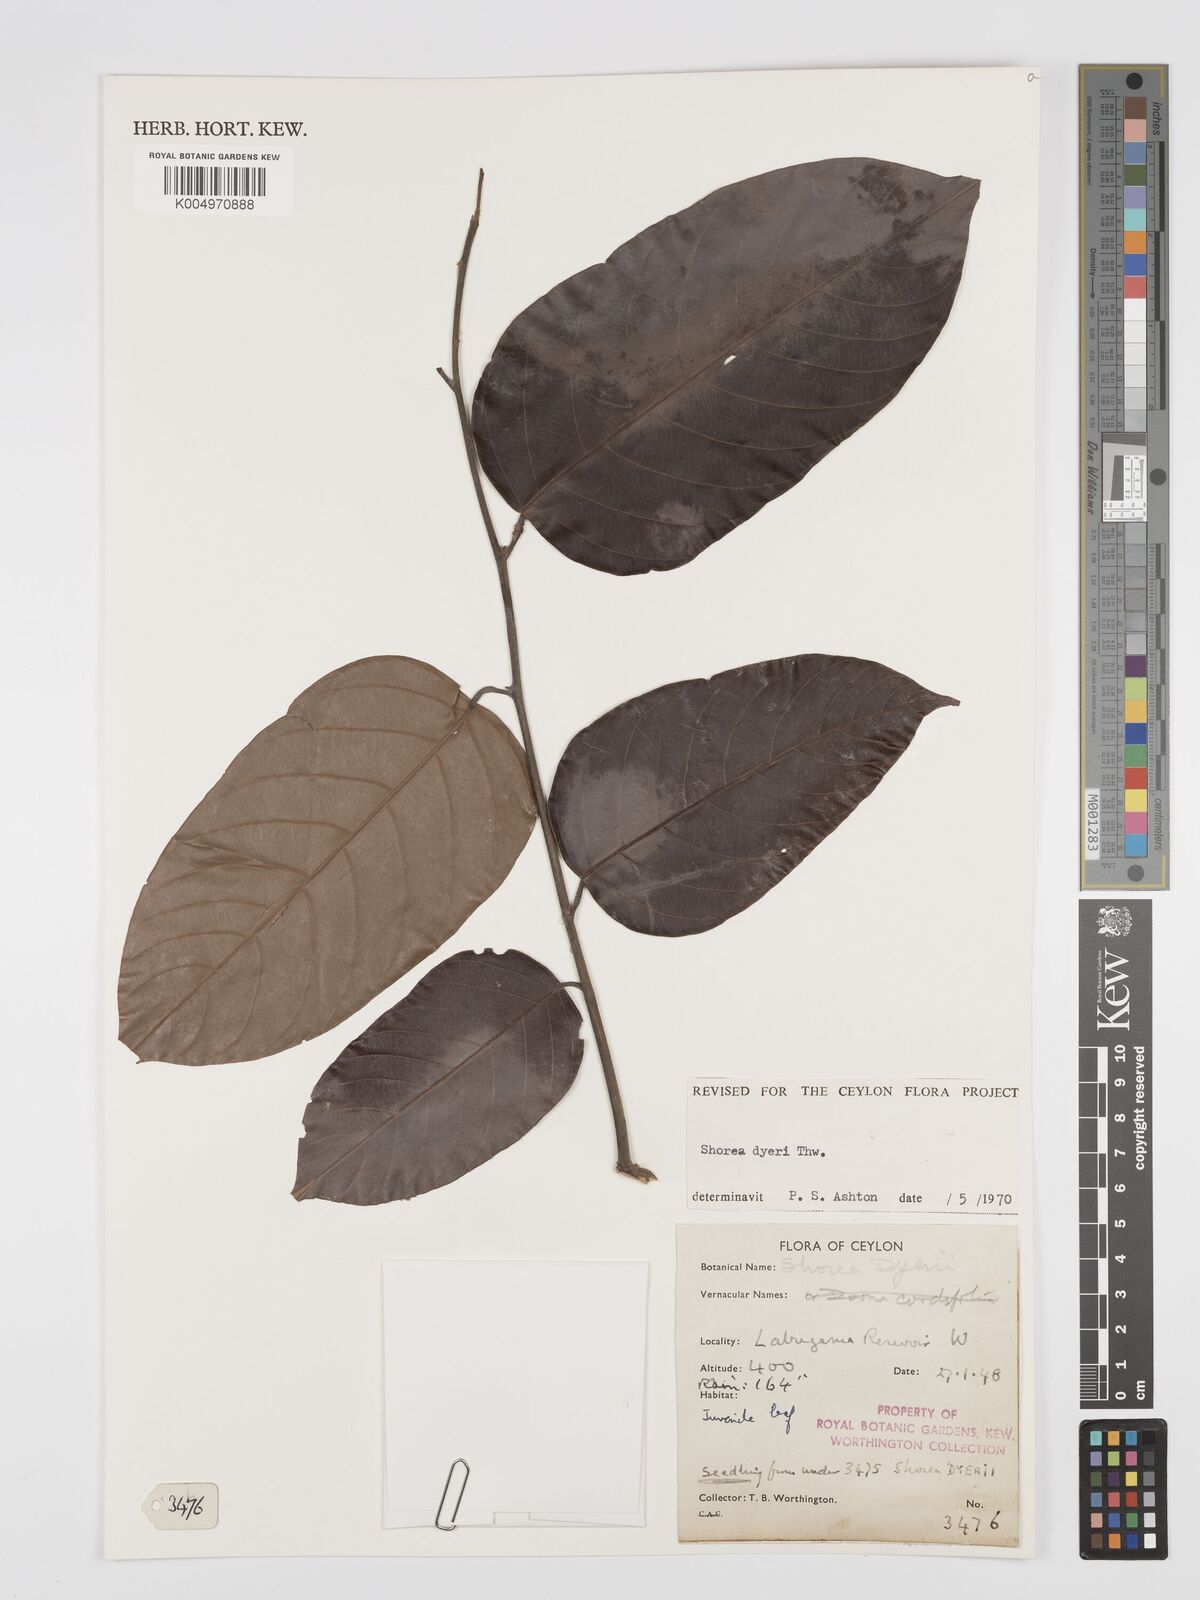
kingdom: Plantae
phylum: Tracheophyta
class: Magnoliopsida
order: Malvales
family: Dipterocarpaceae
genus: Shorea
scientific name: Shorea dyeri
